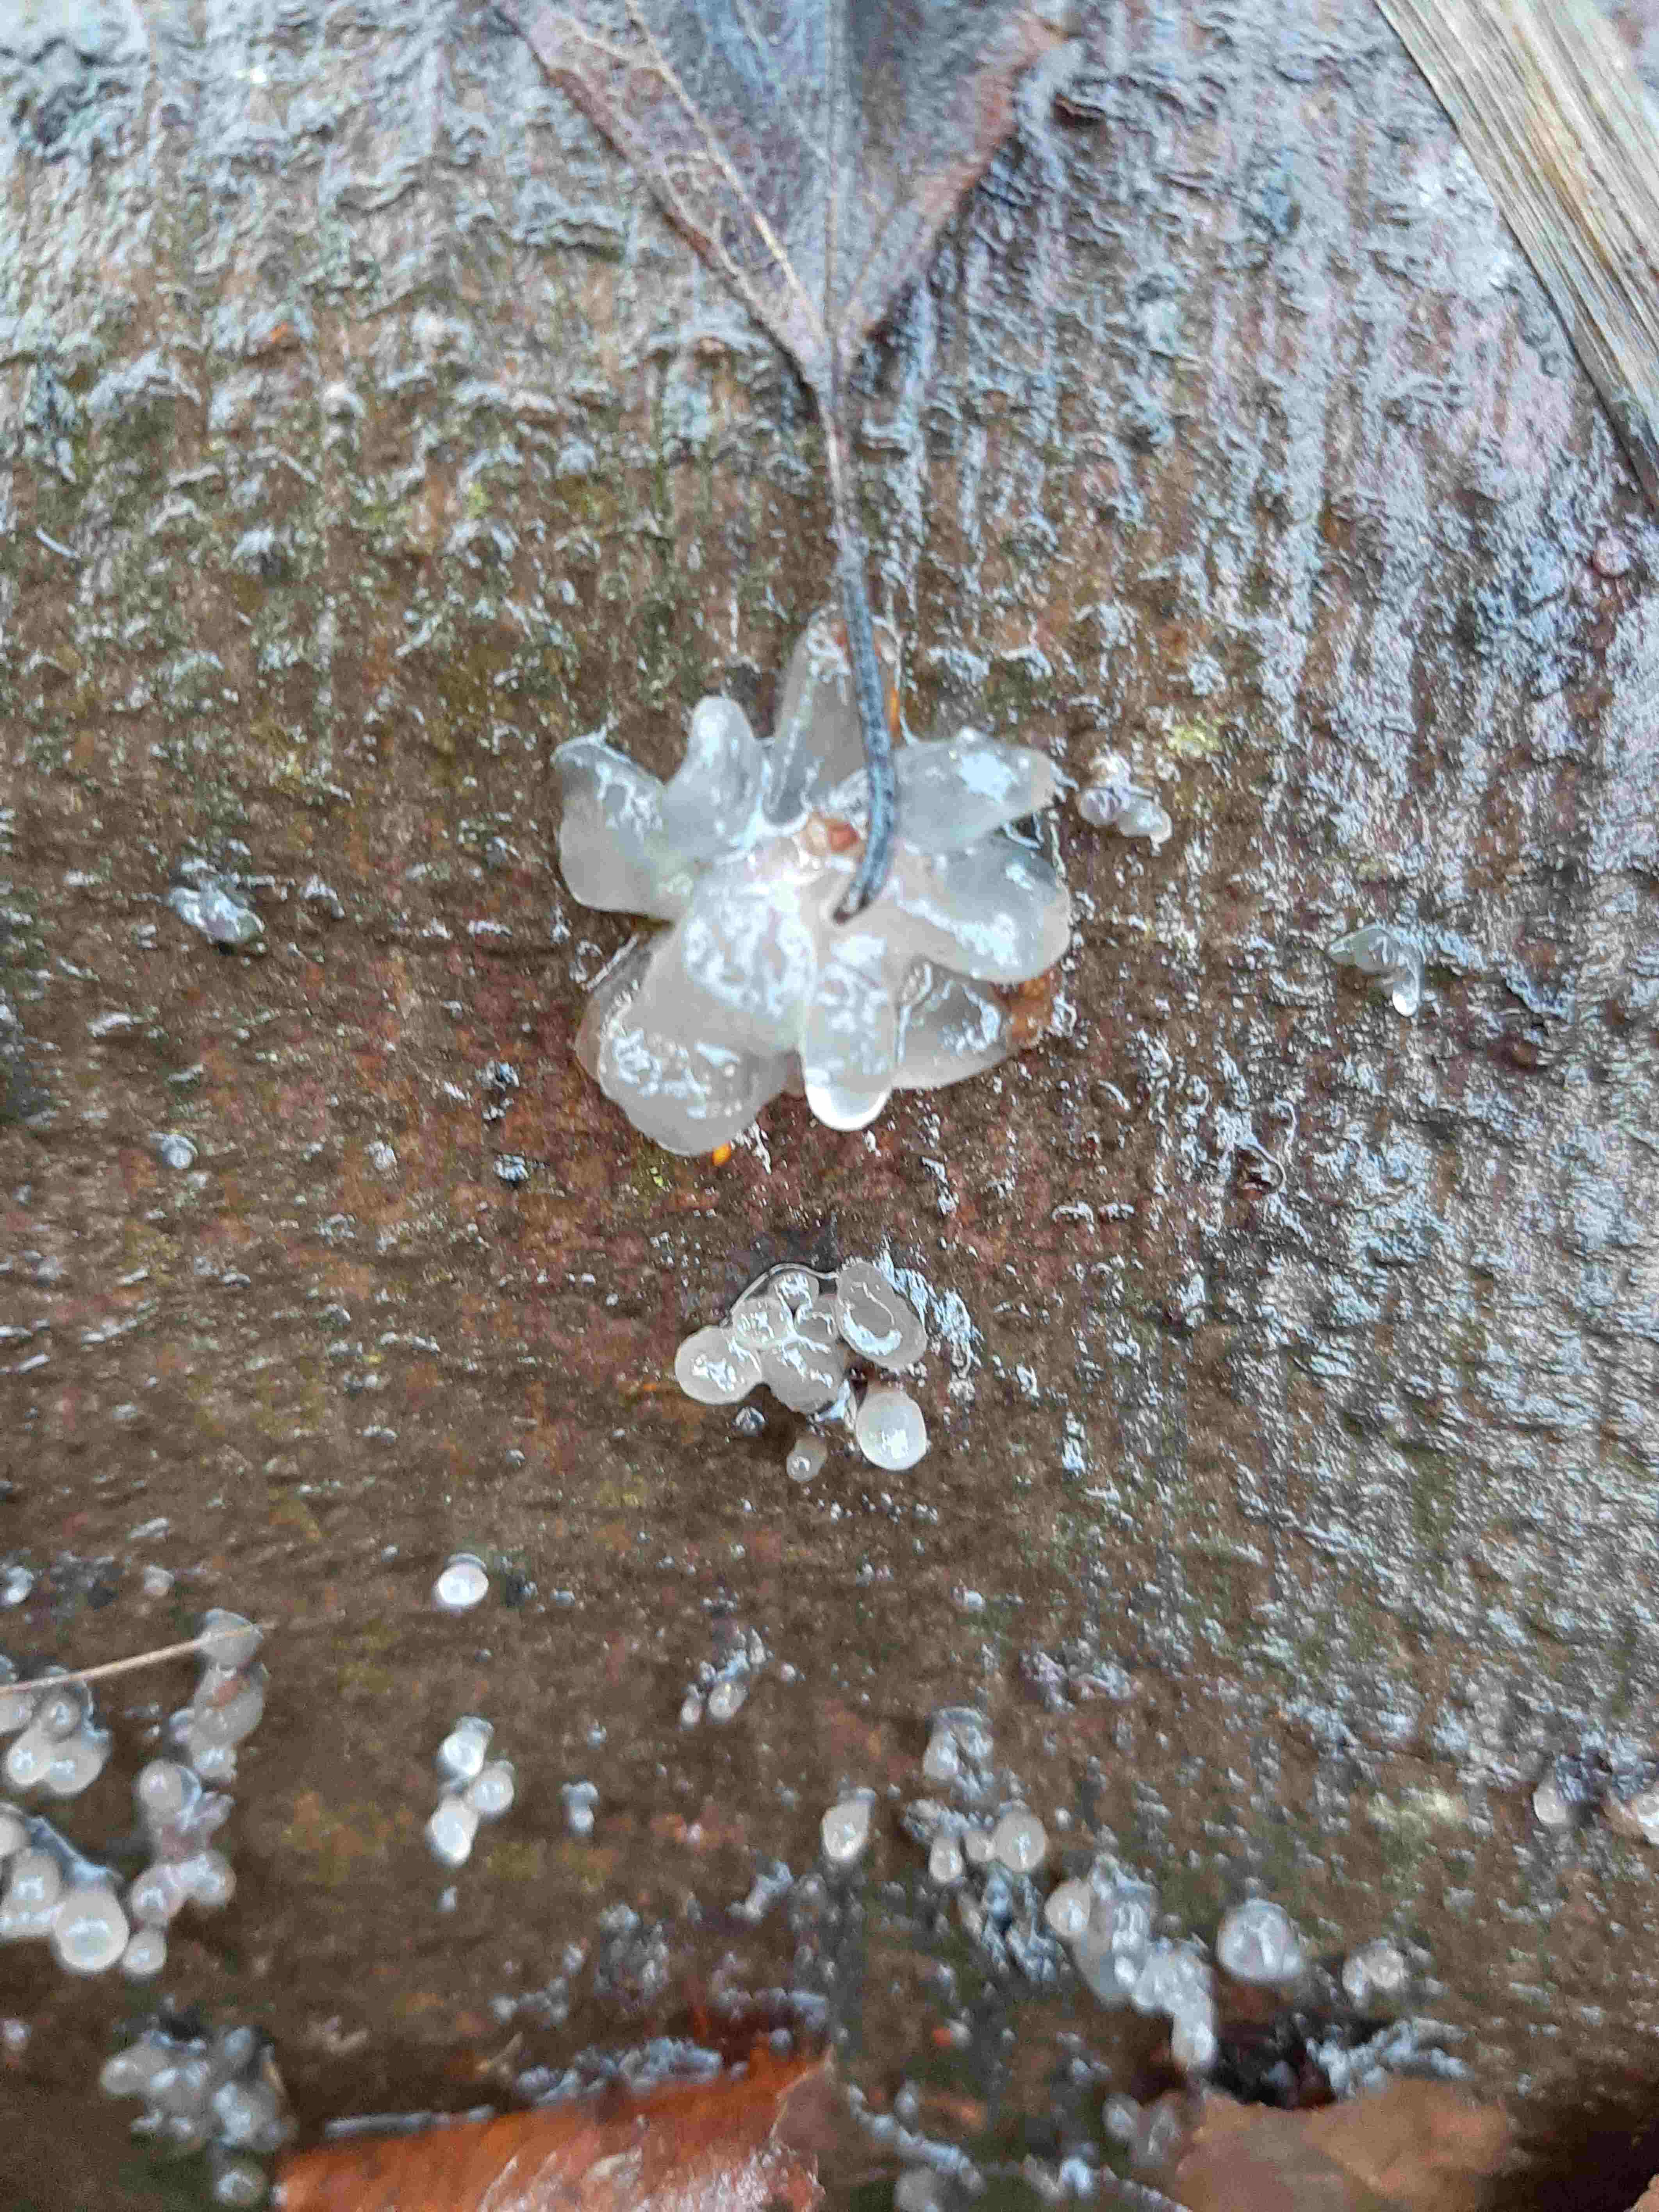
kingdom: Fungi
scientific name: Fungi
